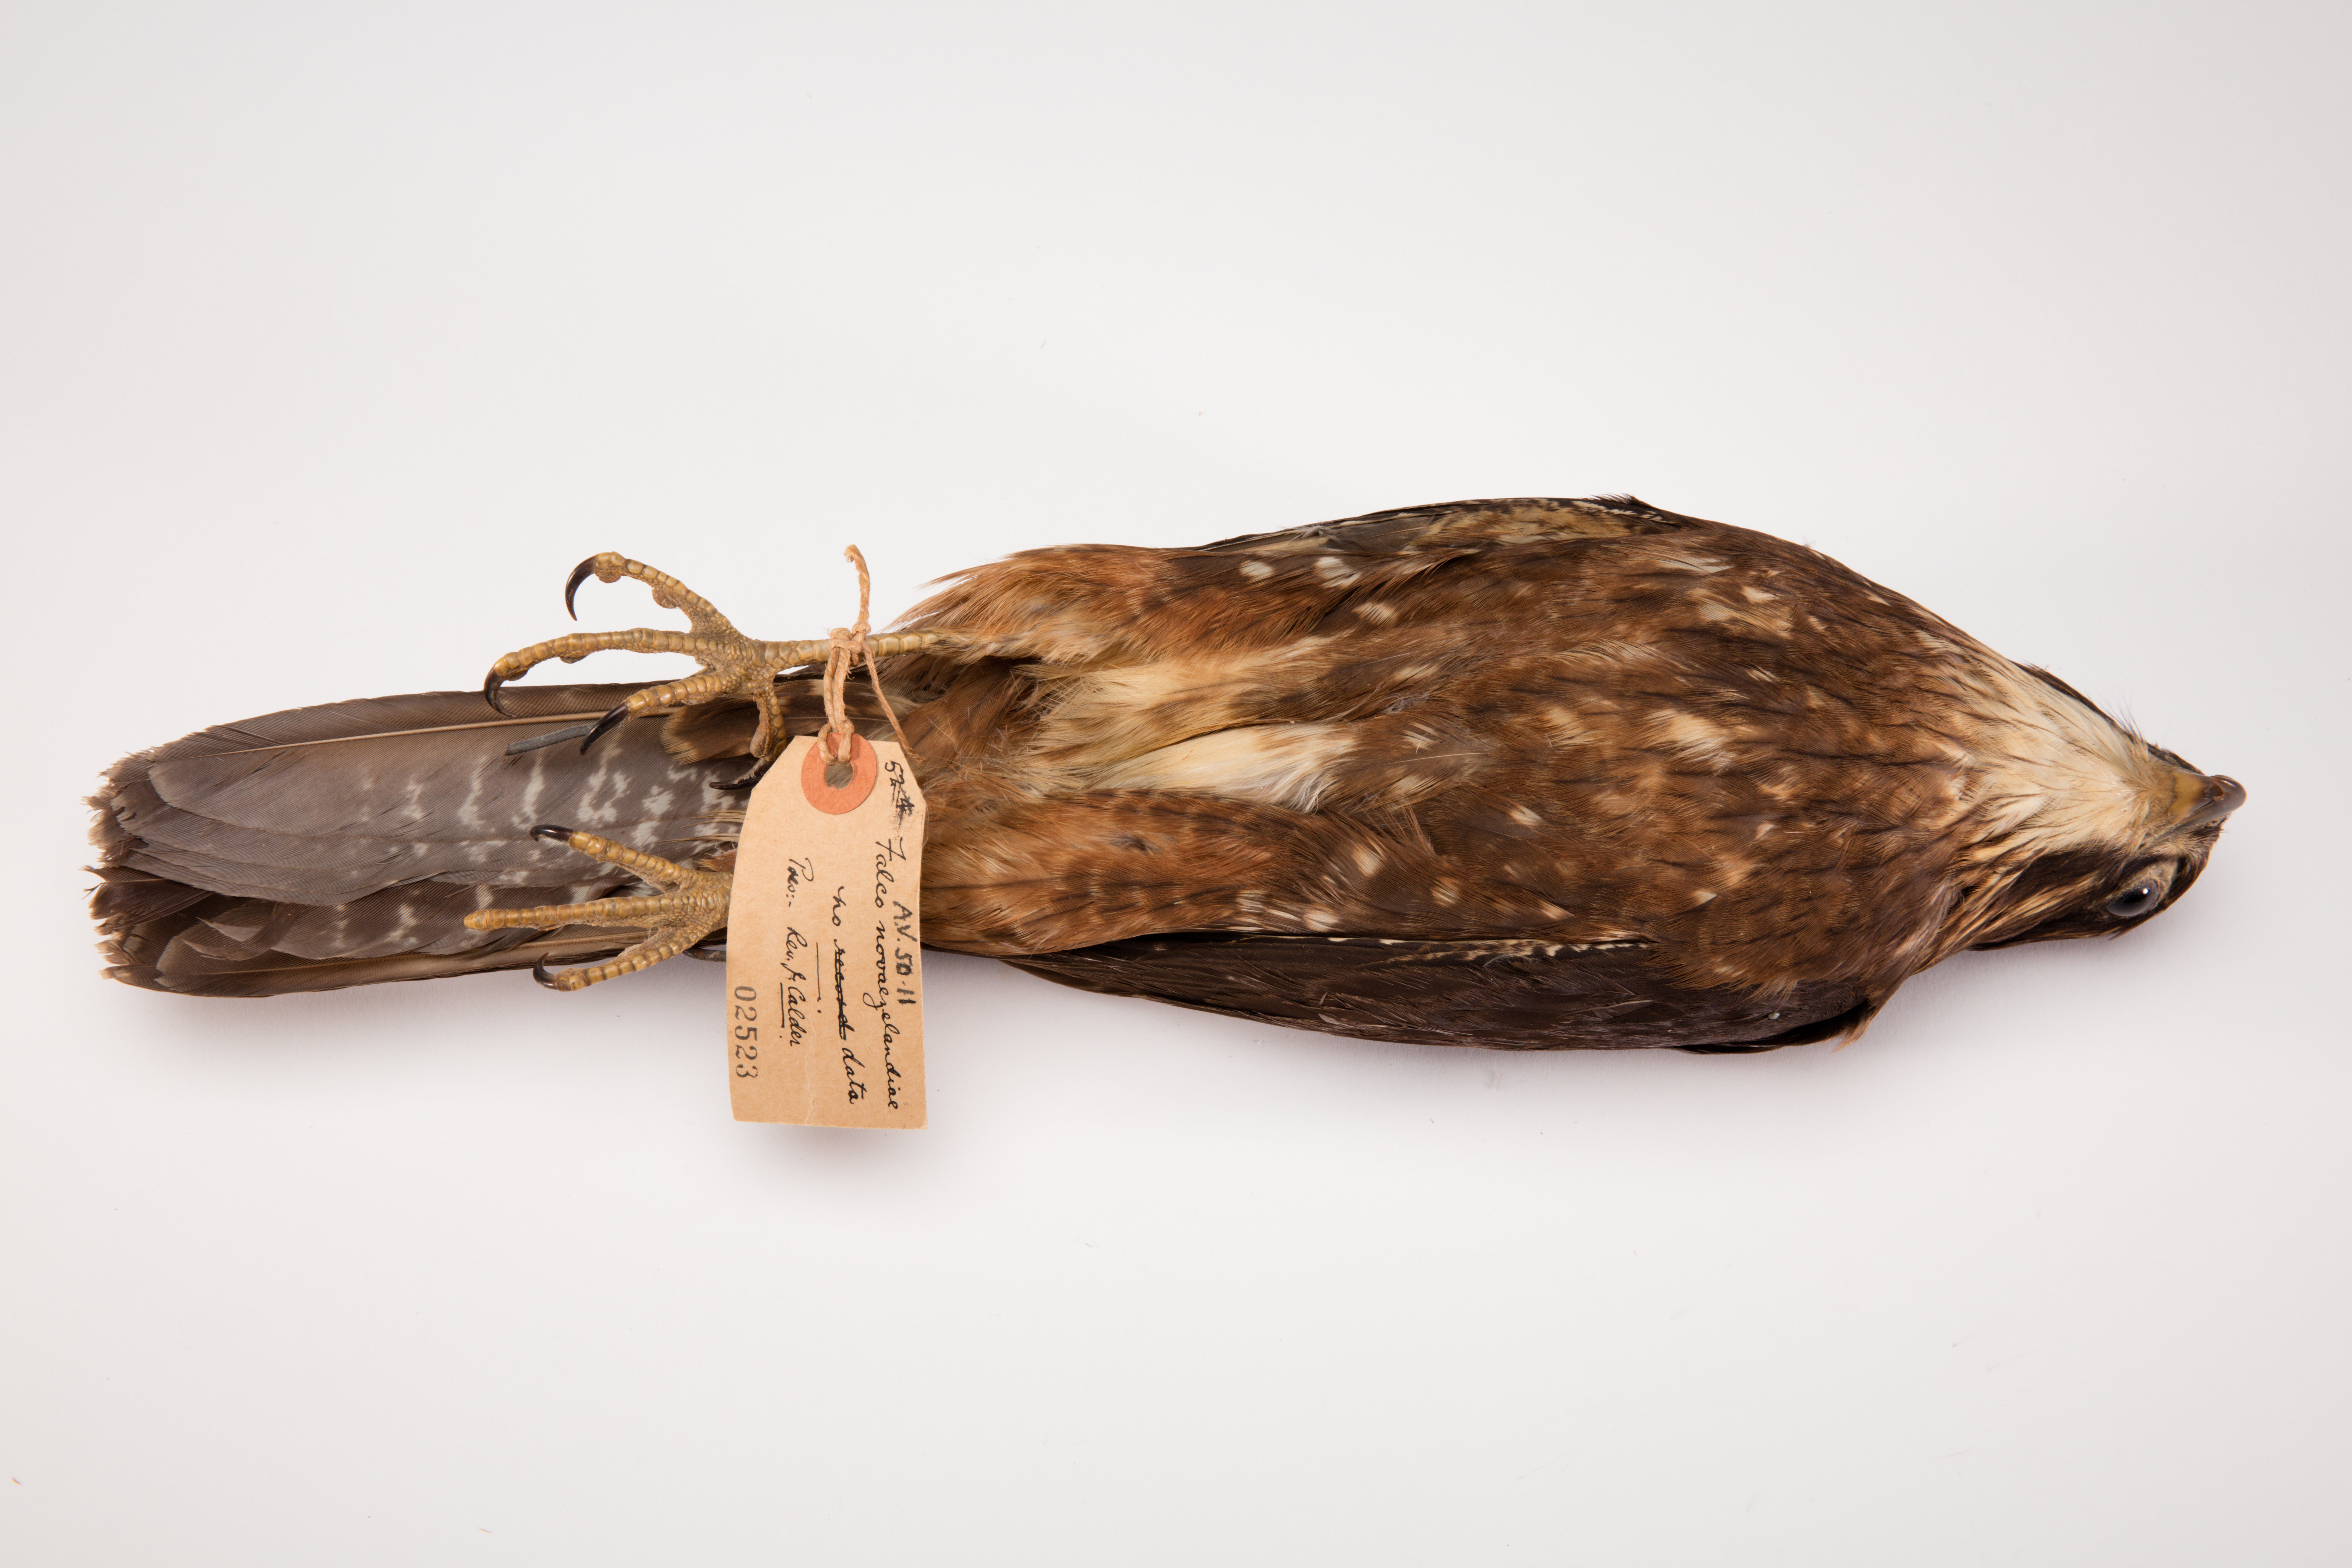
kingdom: Animalia
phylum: Chordata
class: Aves
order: Falconiformes
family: Falconidae
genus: Falco
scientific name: Falco novaeseelandiae
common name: New zealand falcon
